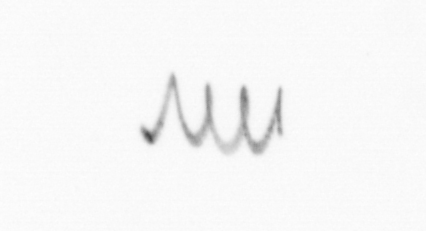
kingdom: Chromista
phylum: Ochrophyta
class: Bacillariophyceae
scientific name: Bacillariophyceae
